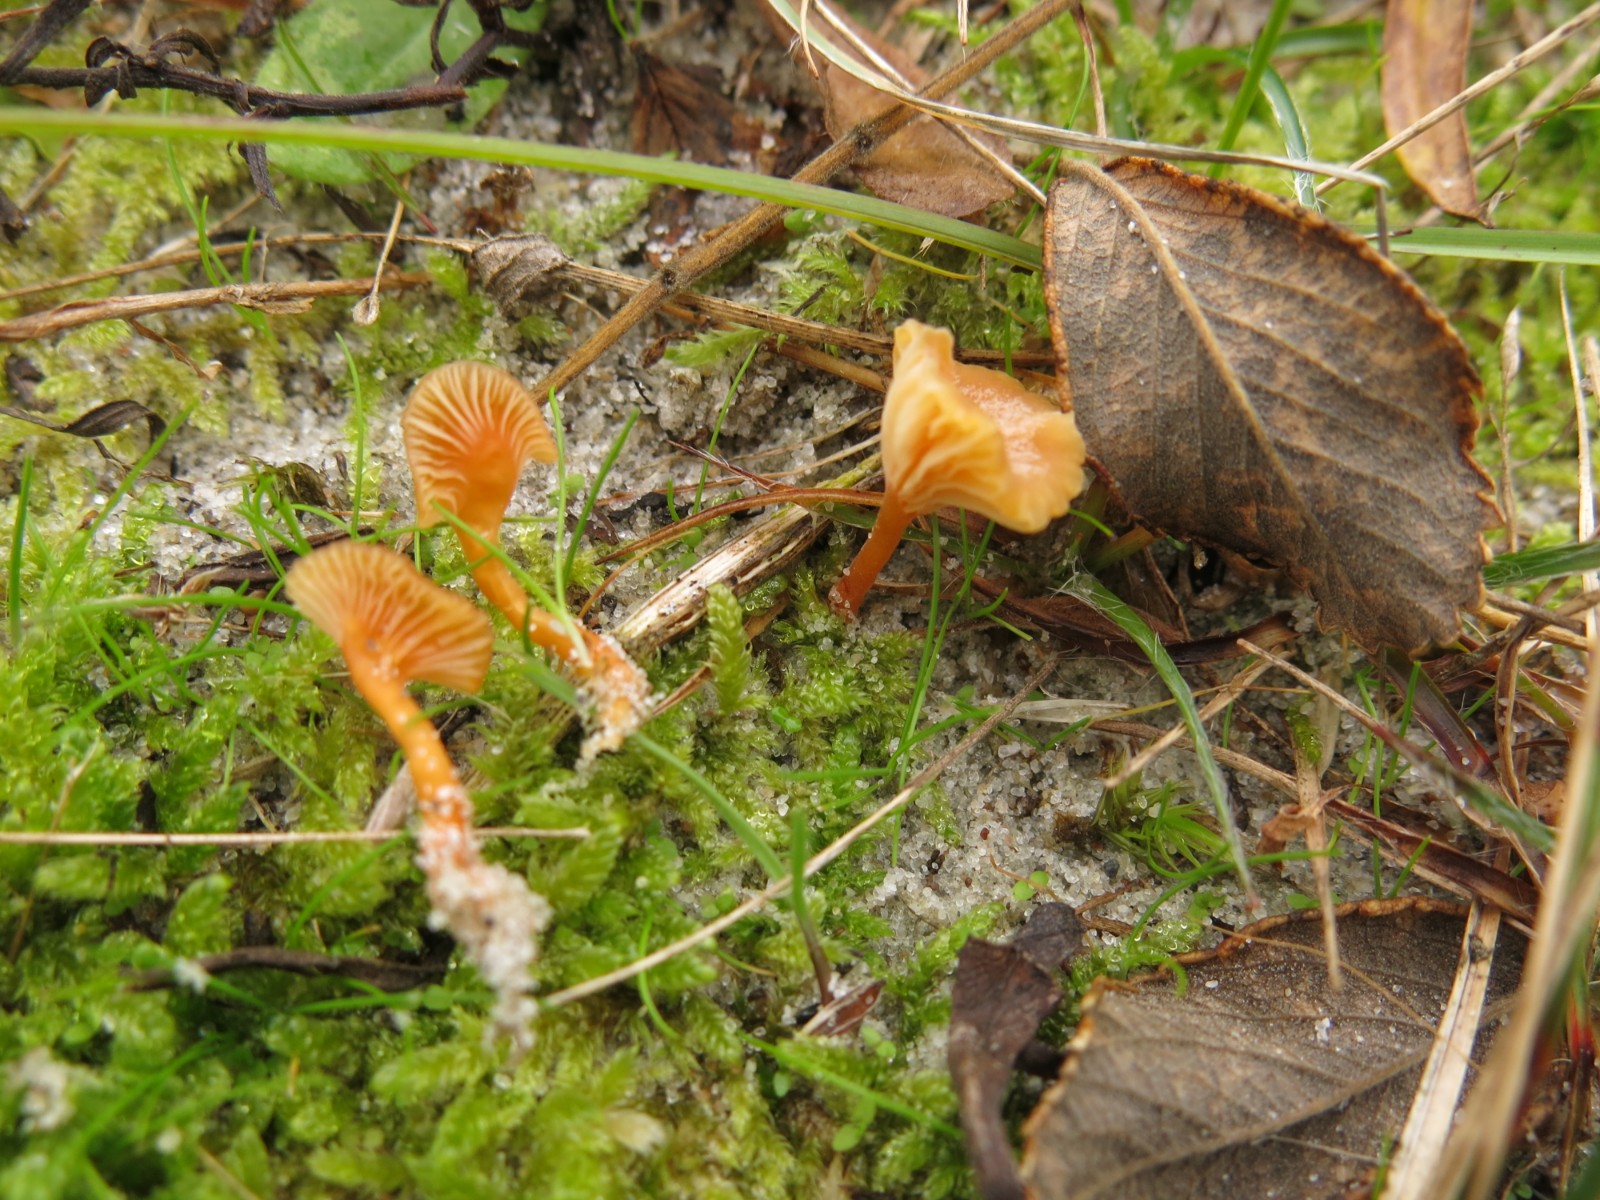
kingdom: Fungi
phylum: Basidiomycota
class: Agaricomycetes
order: Hymenochaetales
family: Rickenellaceae
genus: Rickenella
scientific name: Rickenella fibula
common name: orange mosnavlehat
